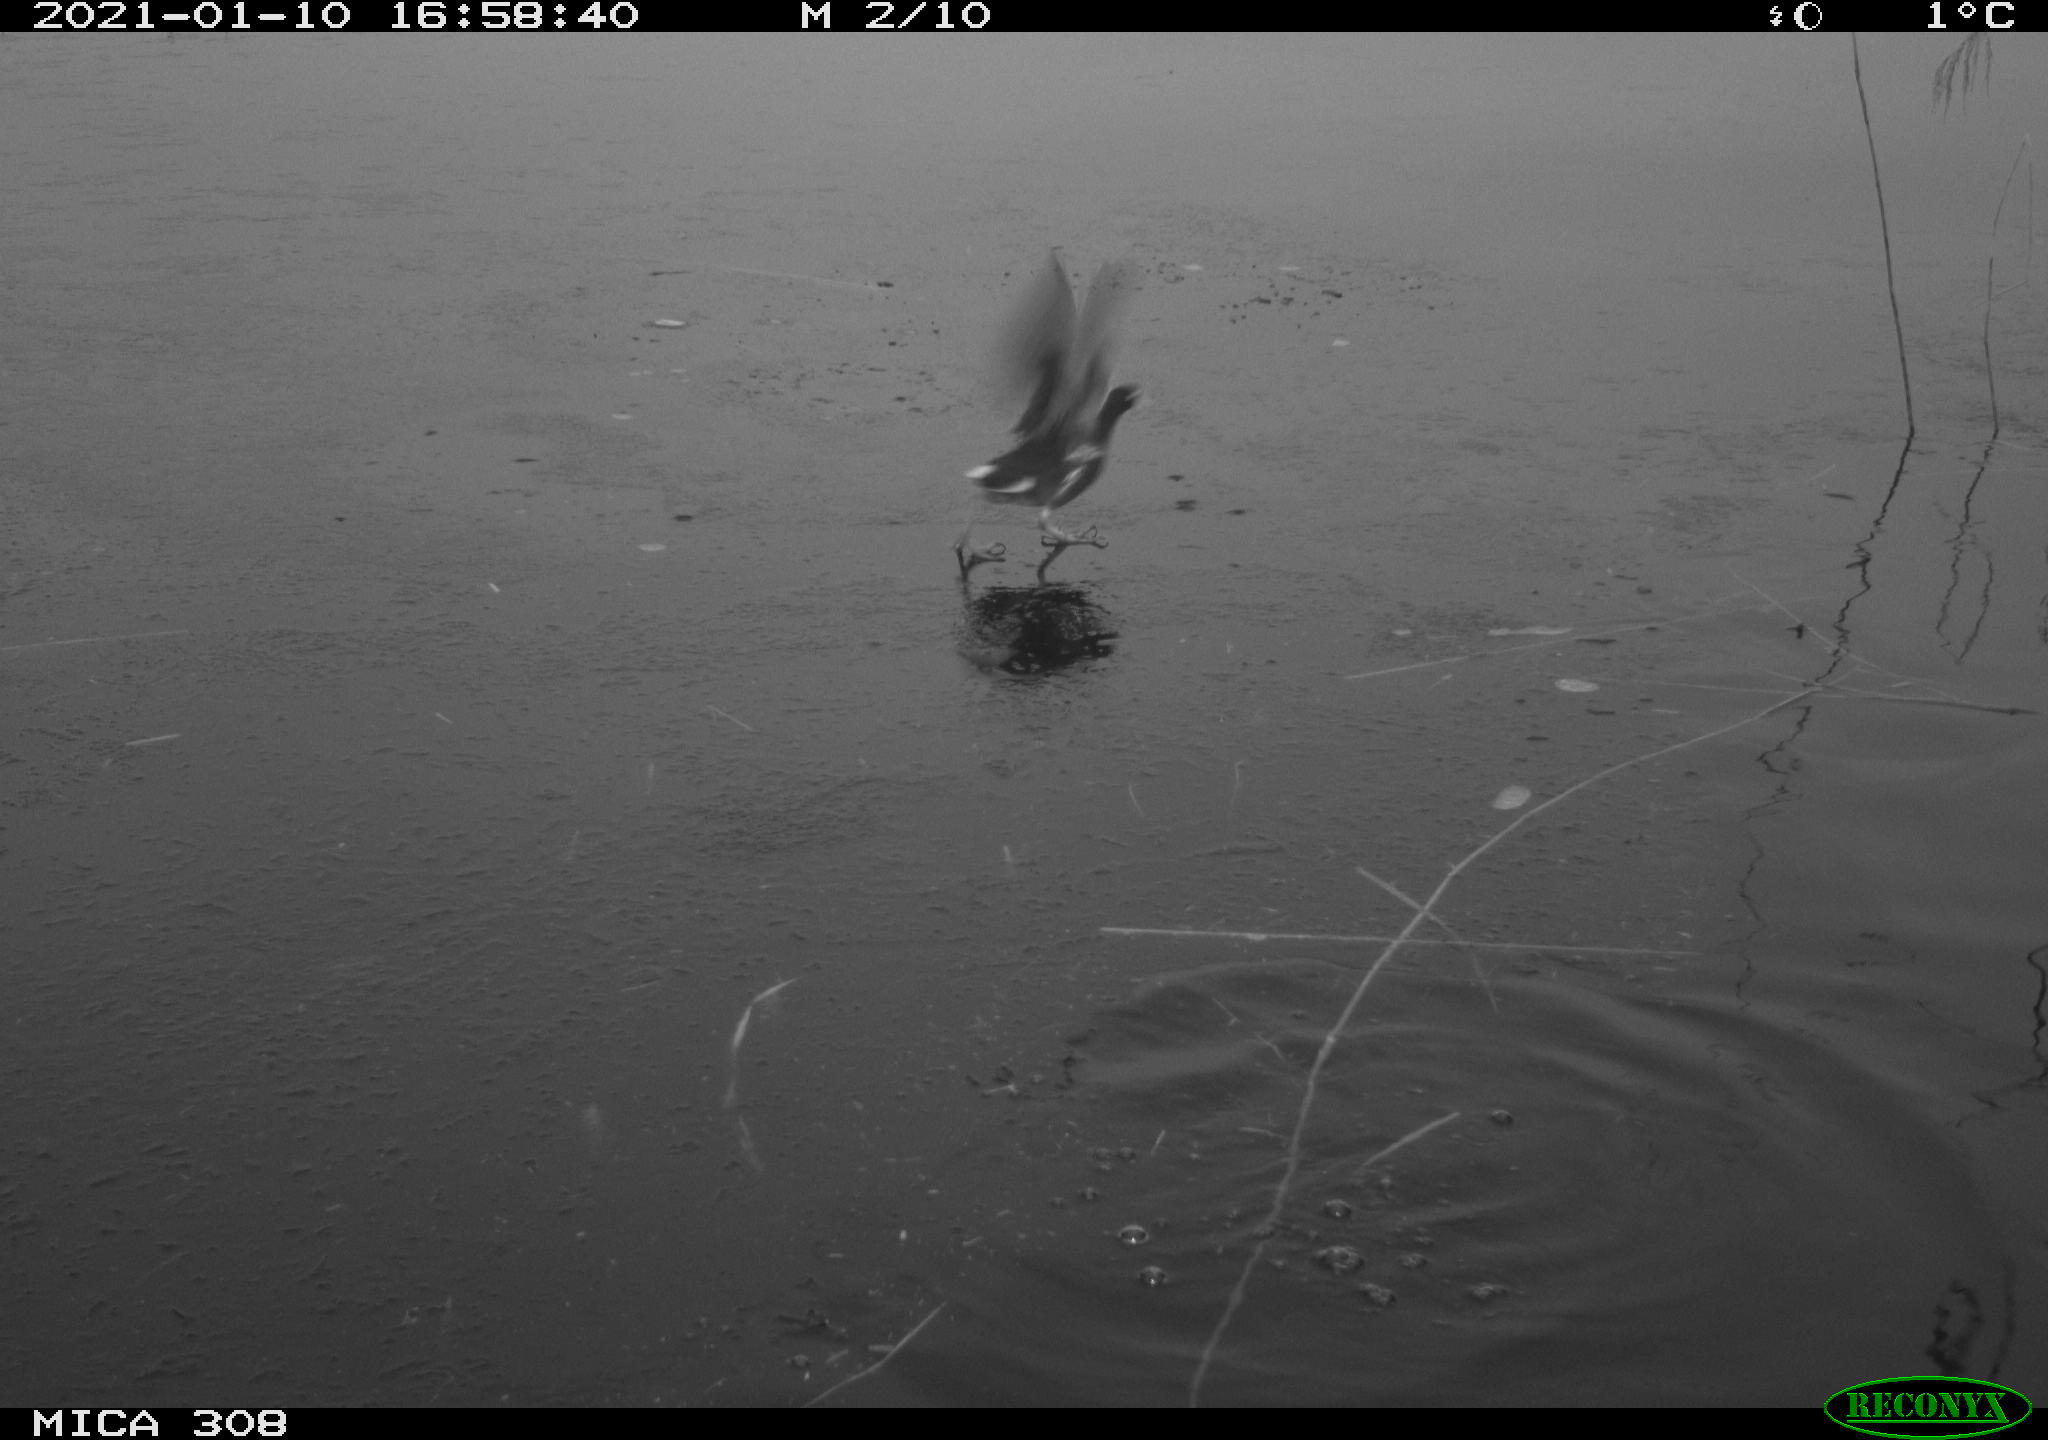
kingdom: Animalia
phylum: Chordata
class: Aves
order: Gruiformes
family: Rallidae
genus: Gallinula
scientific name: Gallinula chloropus
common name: Common moorhen
